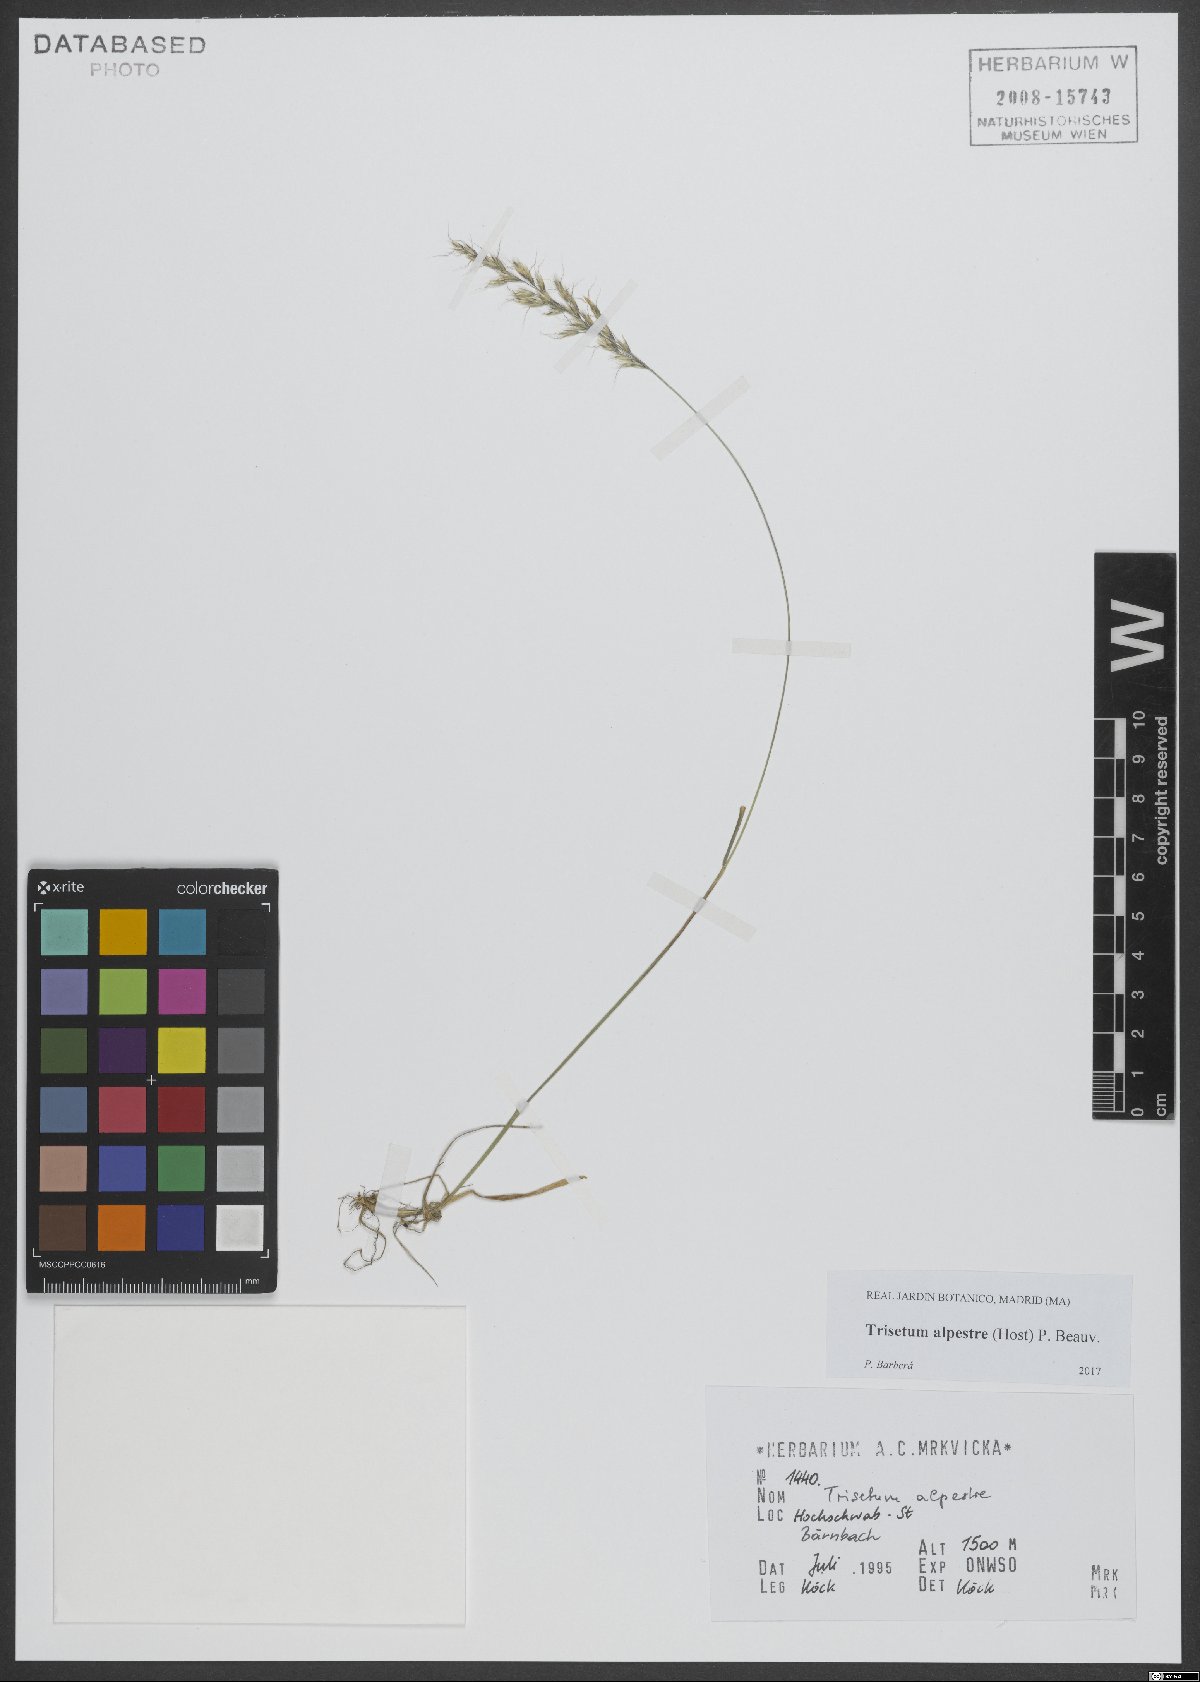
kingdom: Plantae
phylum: Tracheophyta
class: Liliopsida
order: Poales
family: Poaceae
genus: Trisetum
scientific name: Trisetum alpestre
